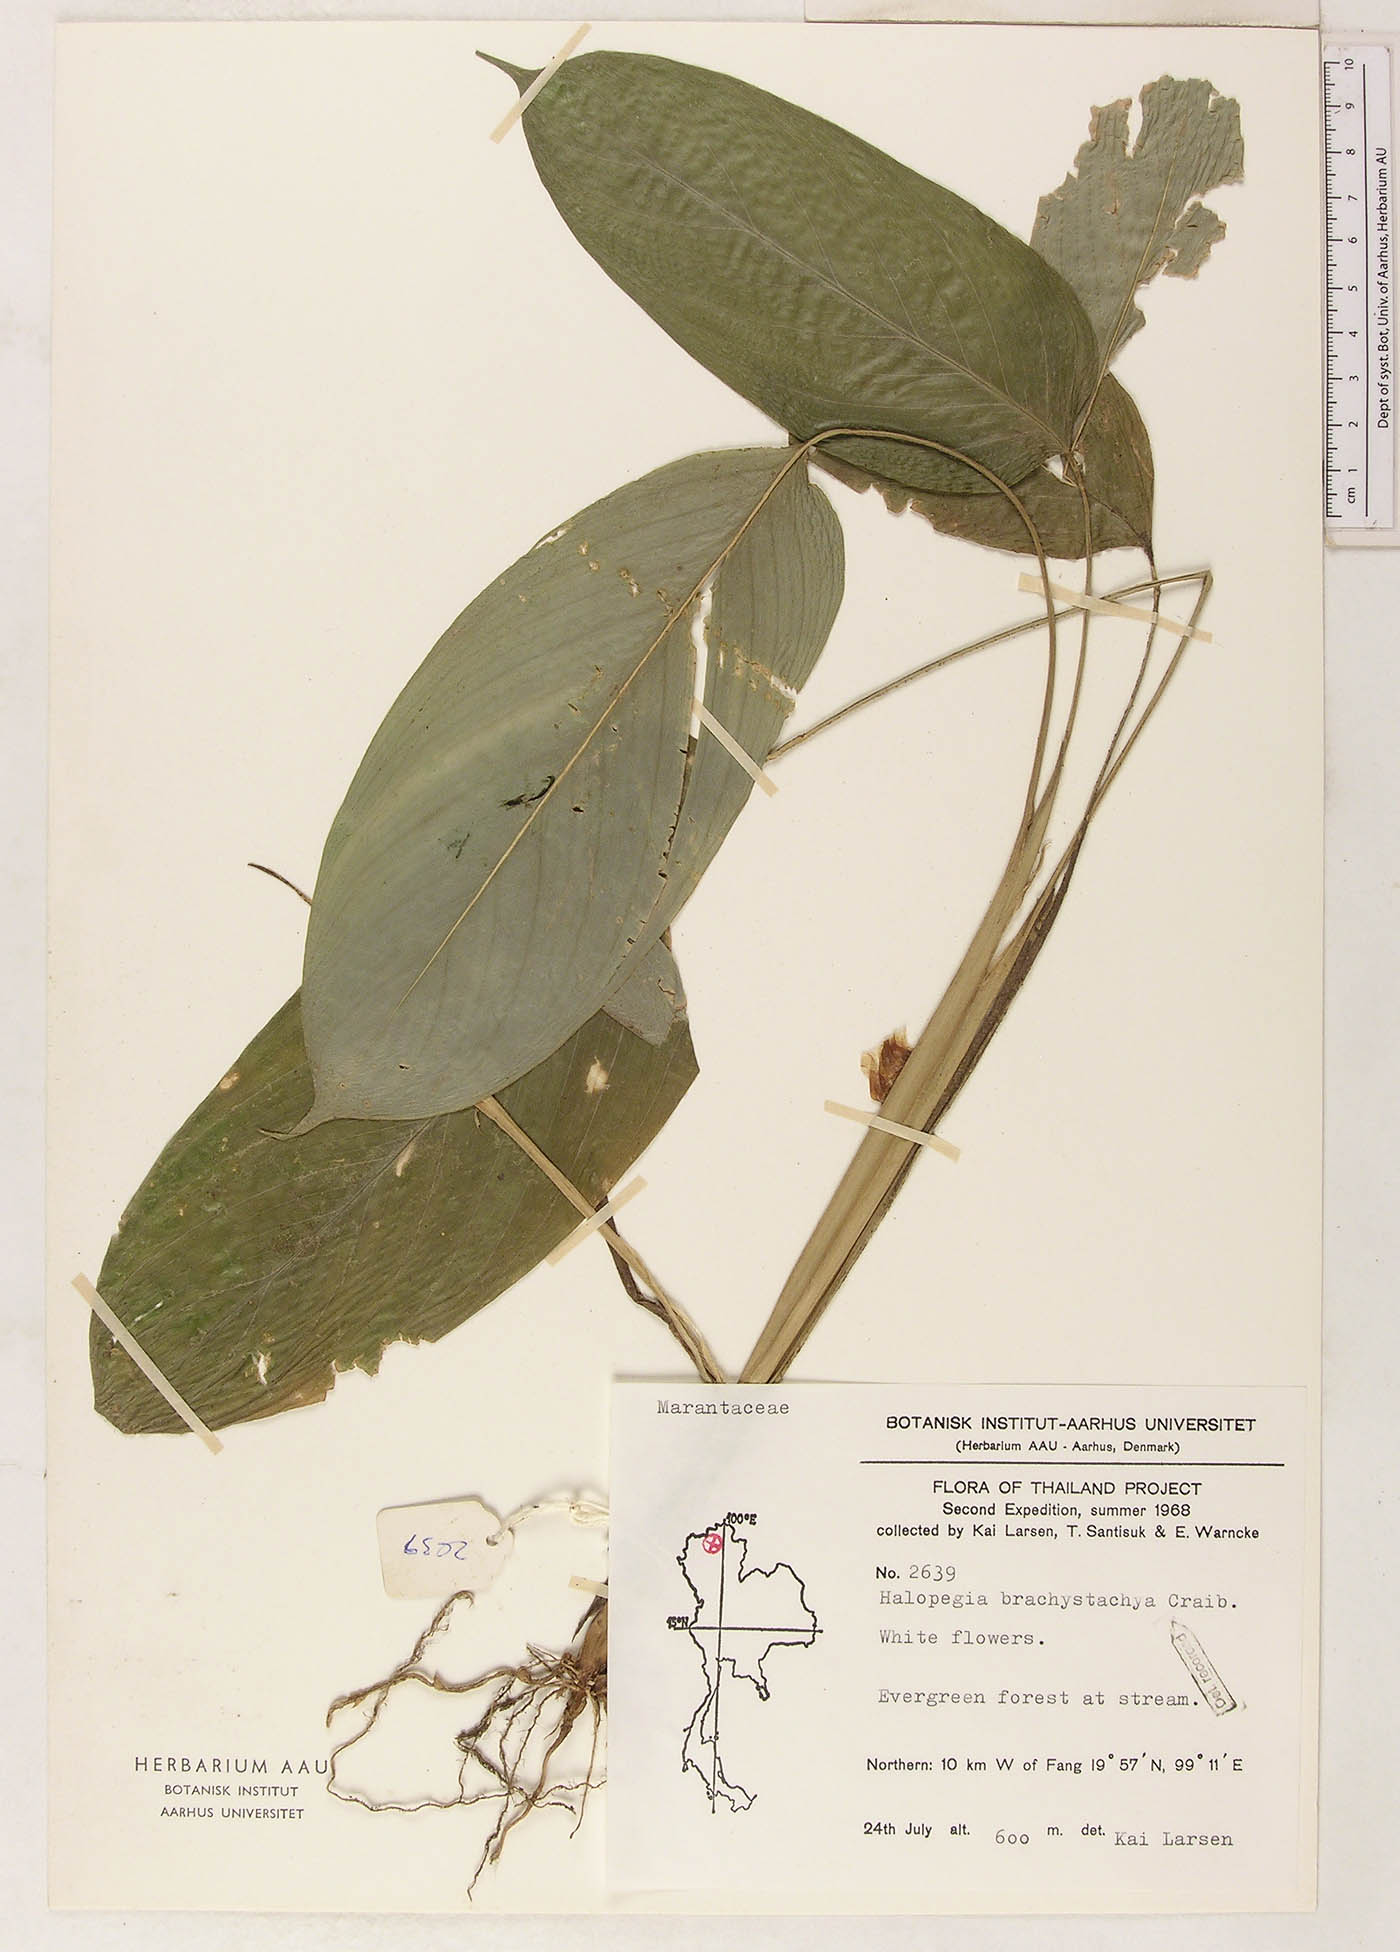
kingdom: Plantae
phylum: Tracheophyta
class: Liliopsida
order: Zingiberales
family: Marantaceae
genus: Halopegia
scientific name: Halopegia blumei
